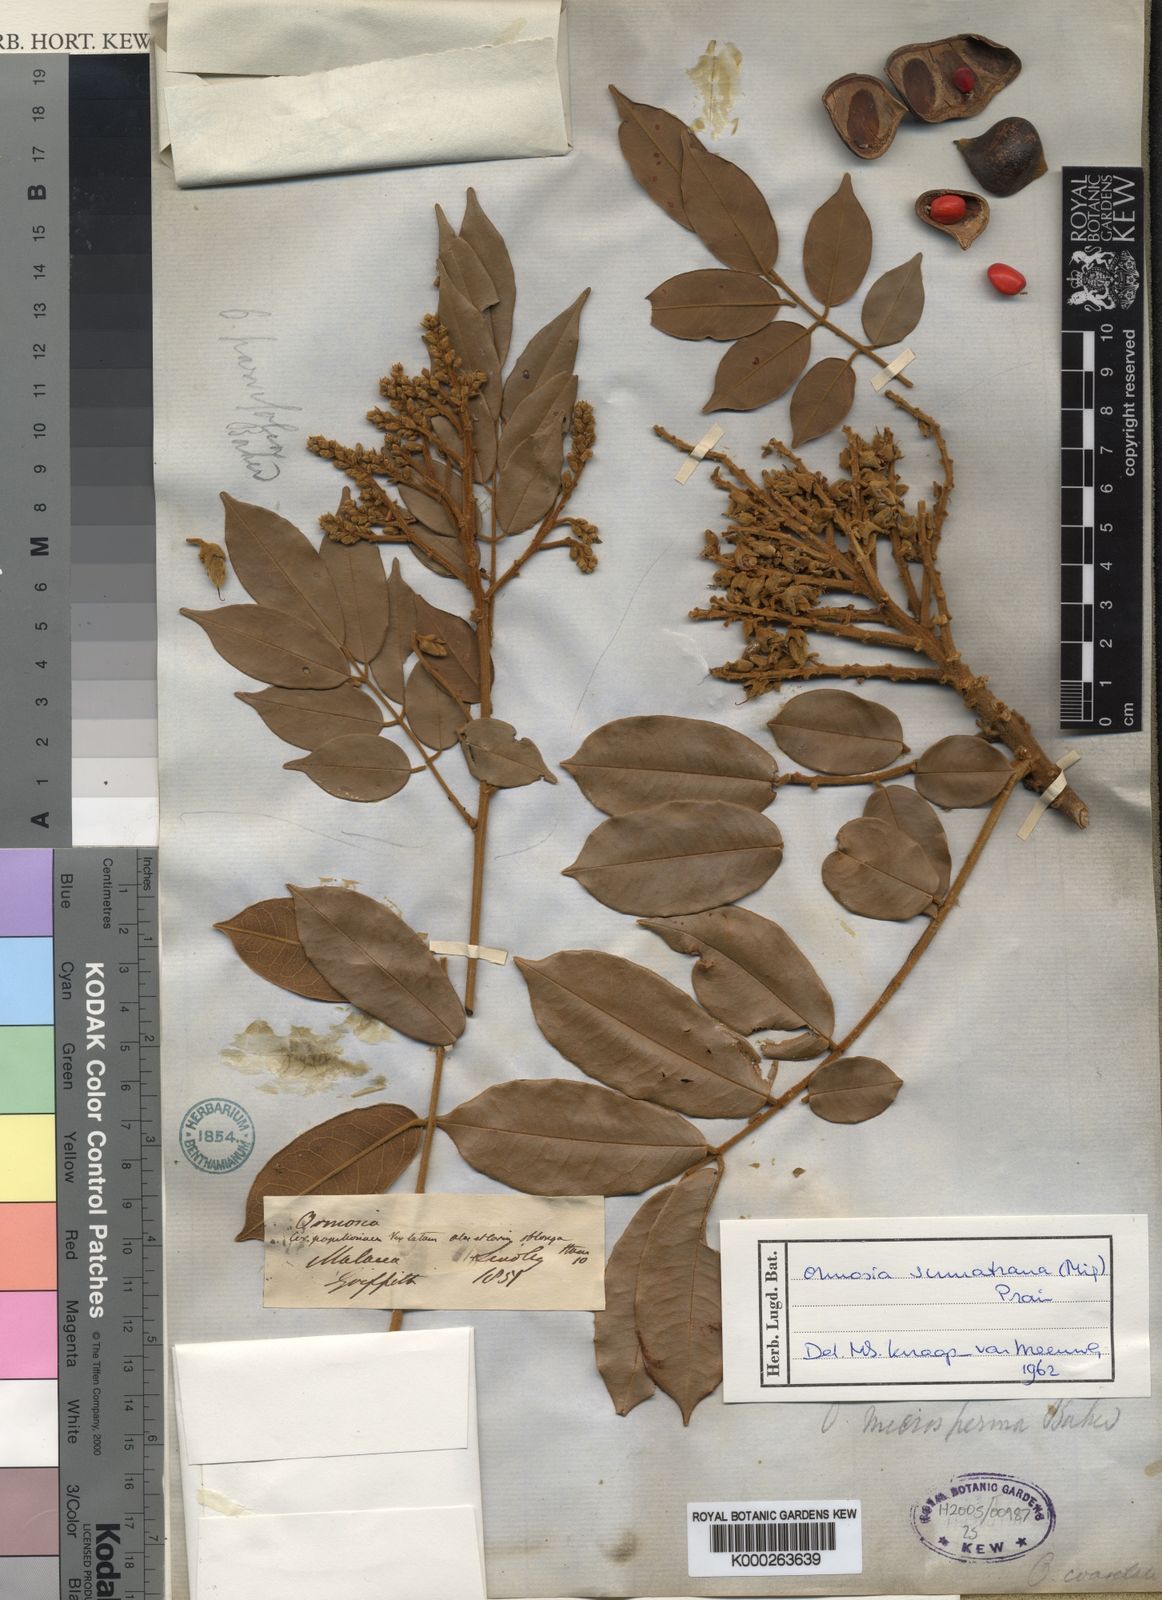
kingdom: Plantae
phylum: Tracheophyta
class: Magnoliopsida
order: Fabales
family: Fabaceae
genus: Ormosia
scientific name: Ormosia
